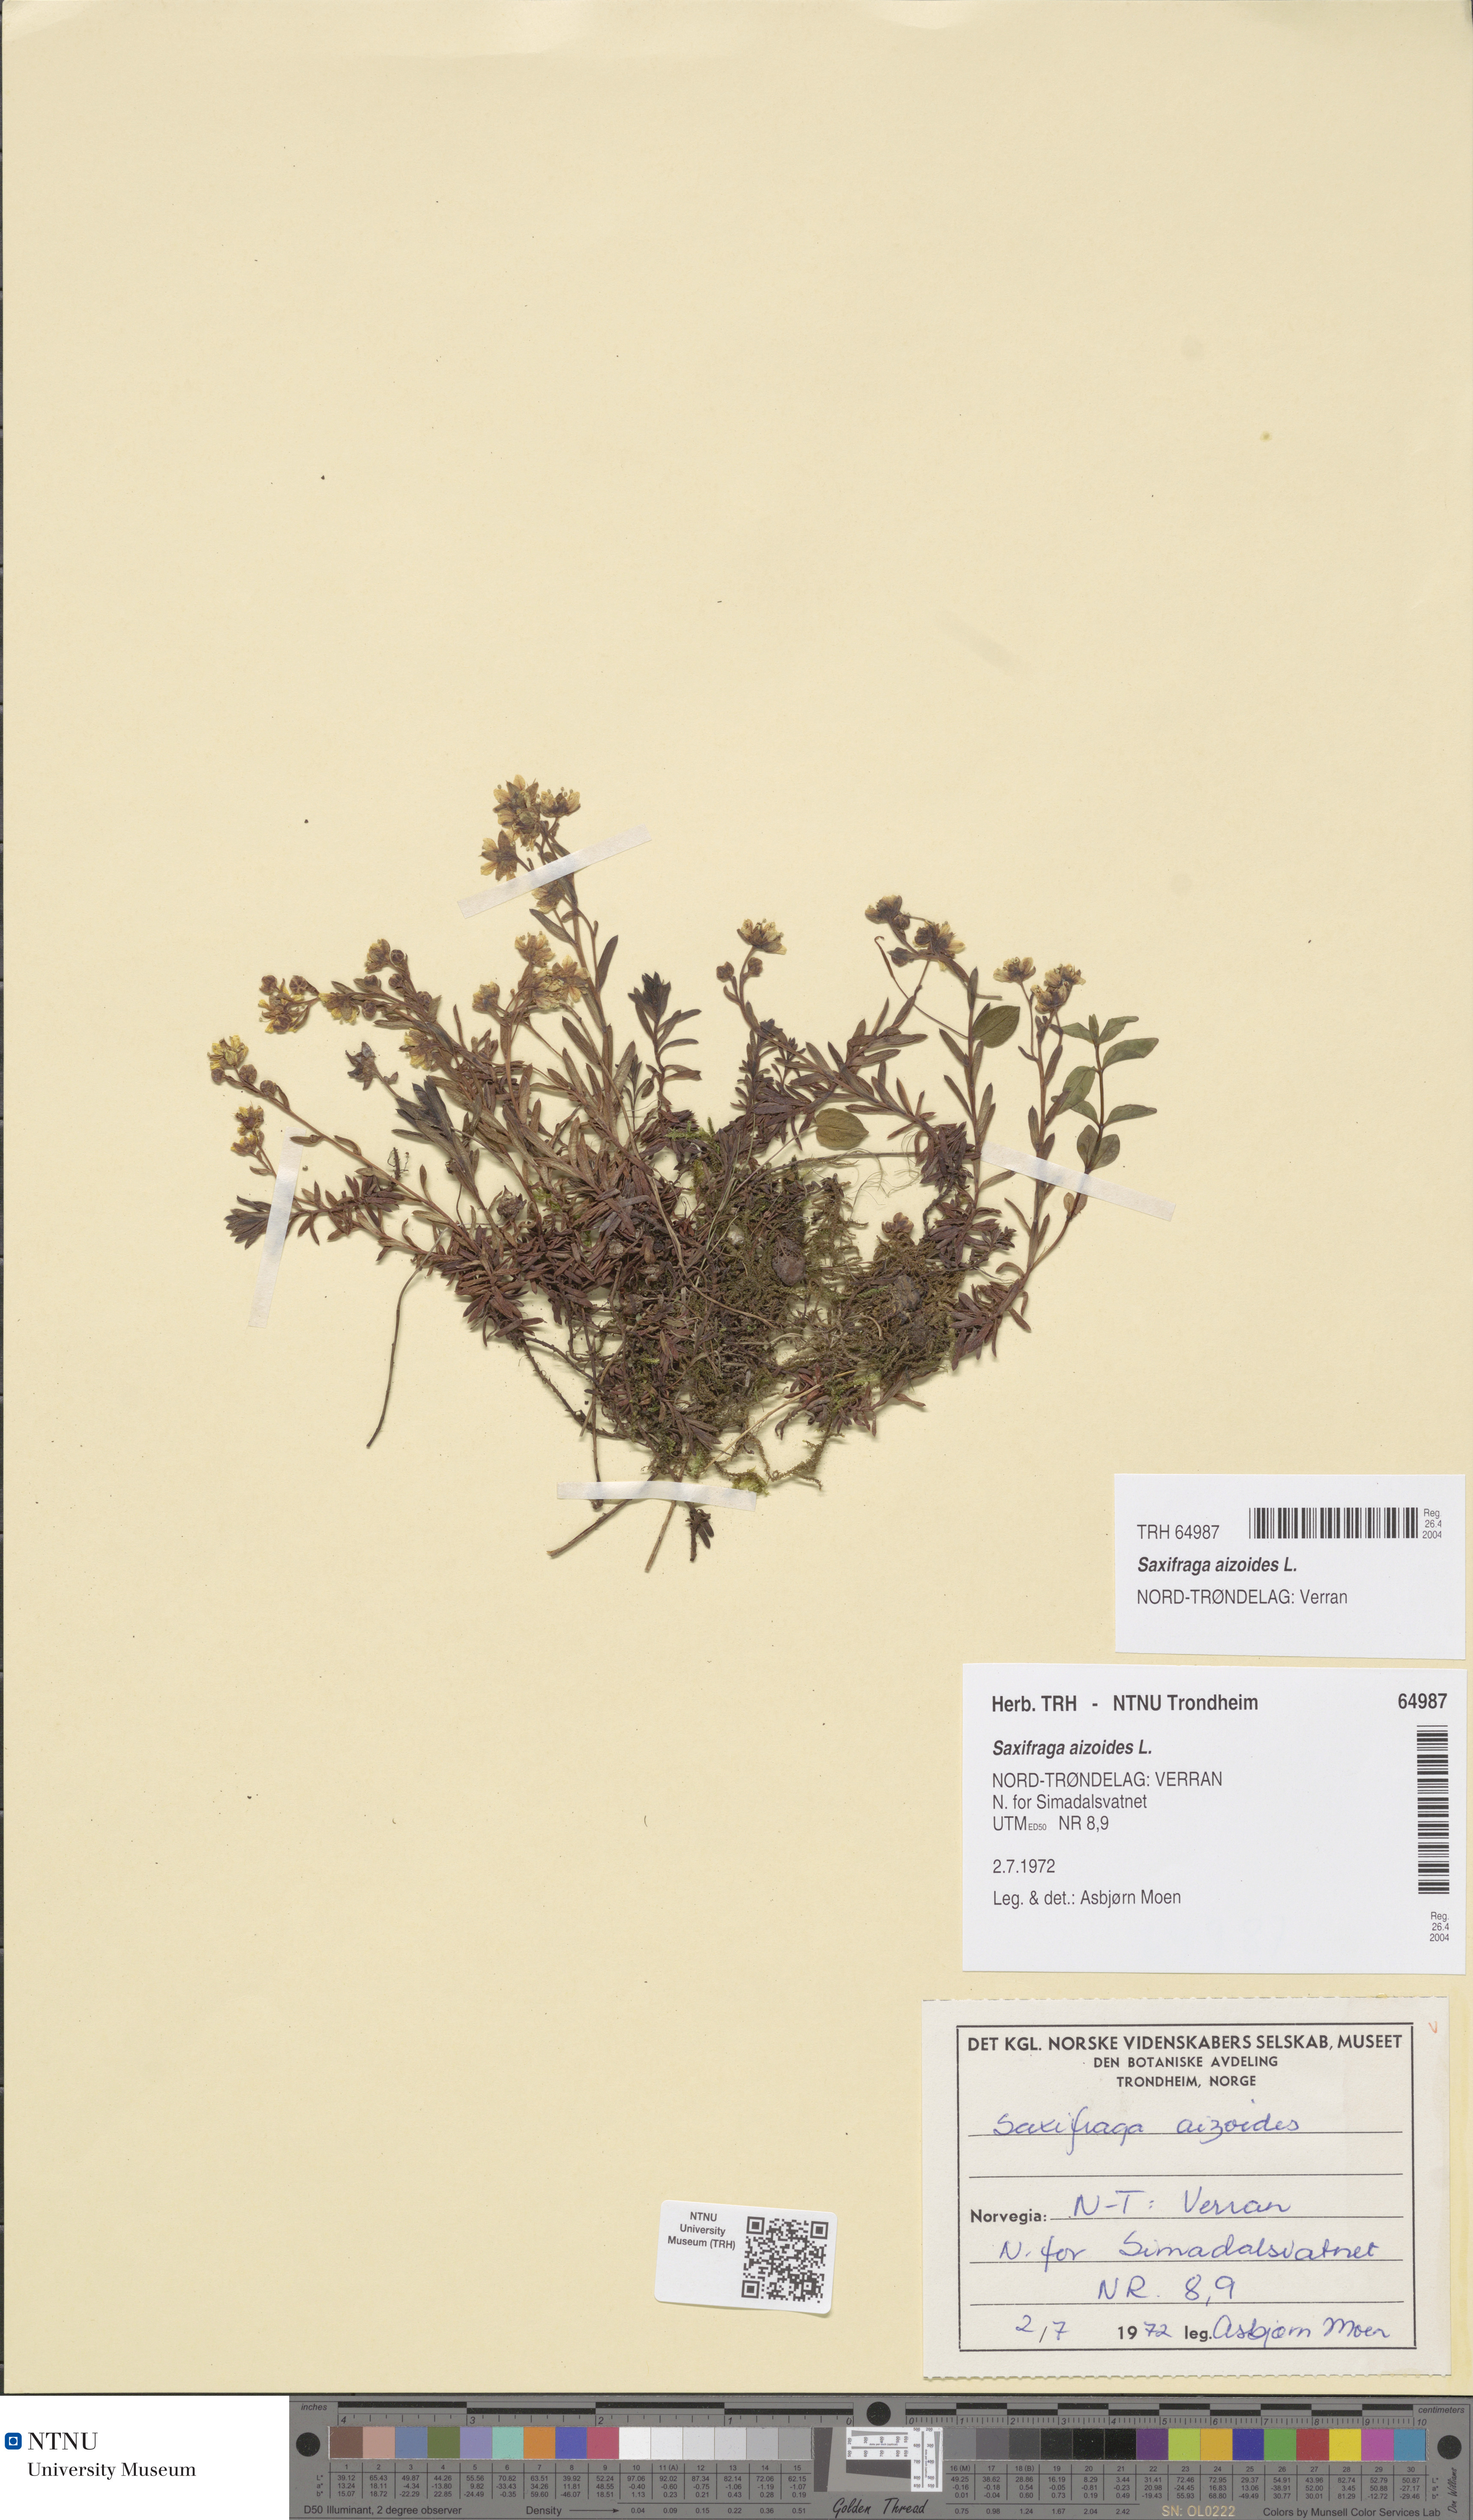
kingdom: Plantae
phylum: Tracheophyta
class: Magnoliopsida
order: Saxifragales
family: Saxifragaceae
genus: Saxifraga
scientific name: Saxifraga aizoides
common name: Yellow mountain saxifrage
